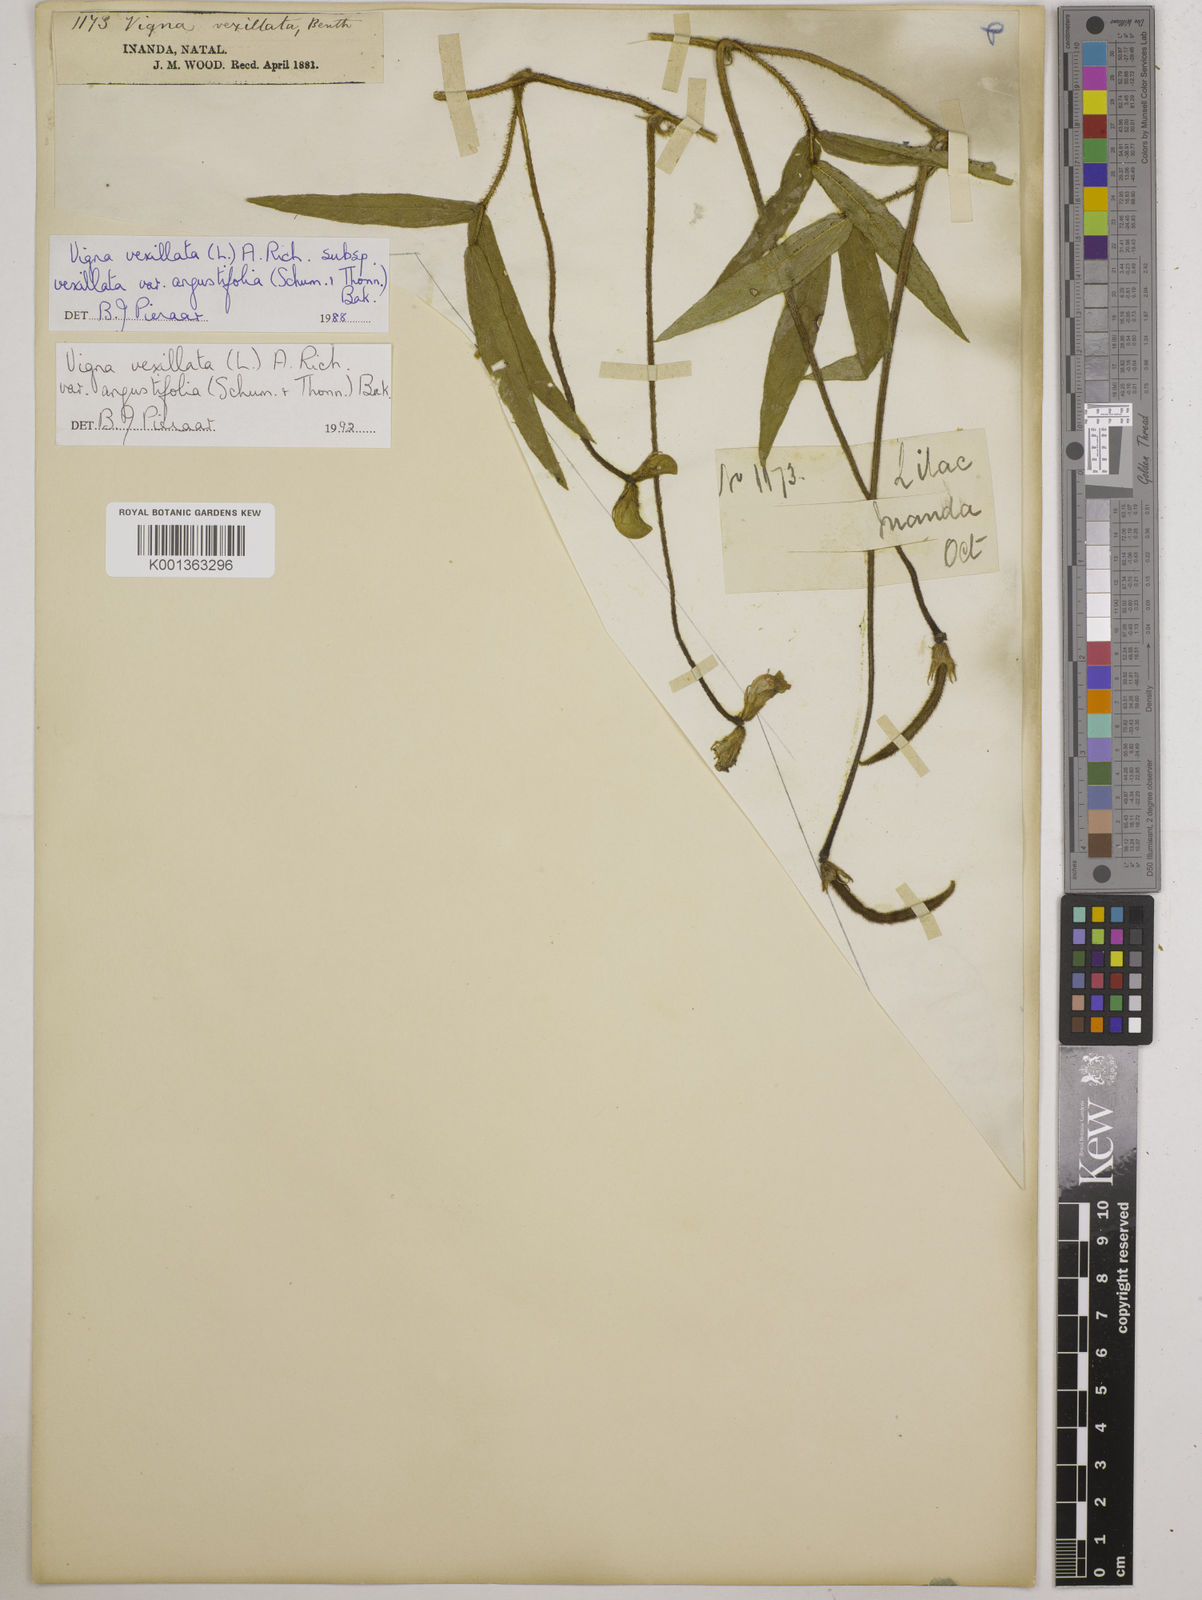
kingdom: Plantae
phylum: Tracheophyta
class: Magnoliopsida
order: Fabales
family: Fabaceae
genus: Vigna
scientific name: Vigna vexillata
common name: Zombi pea
